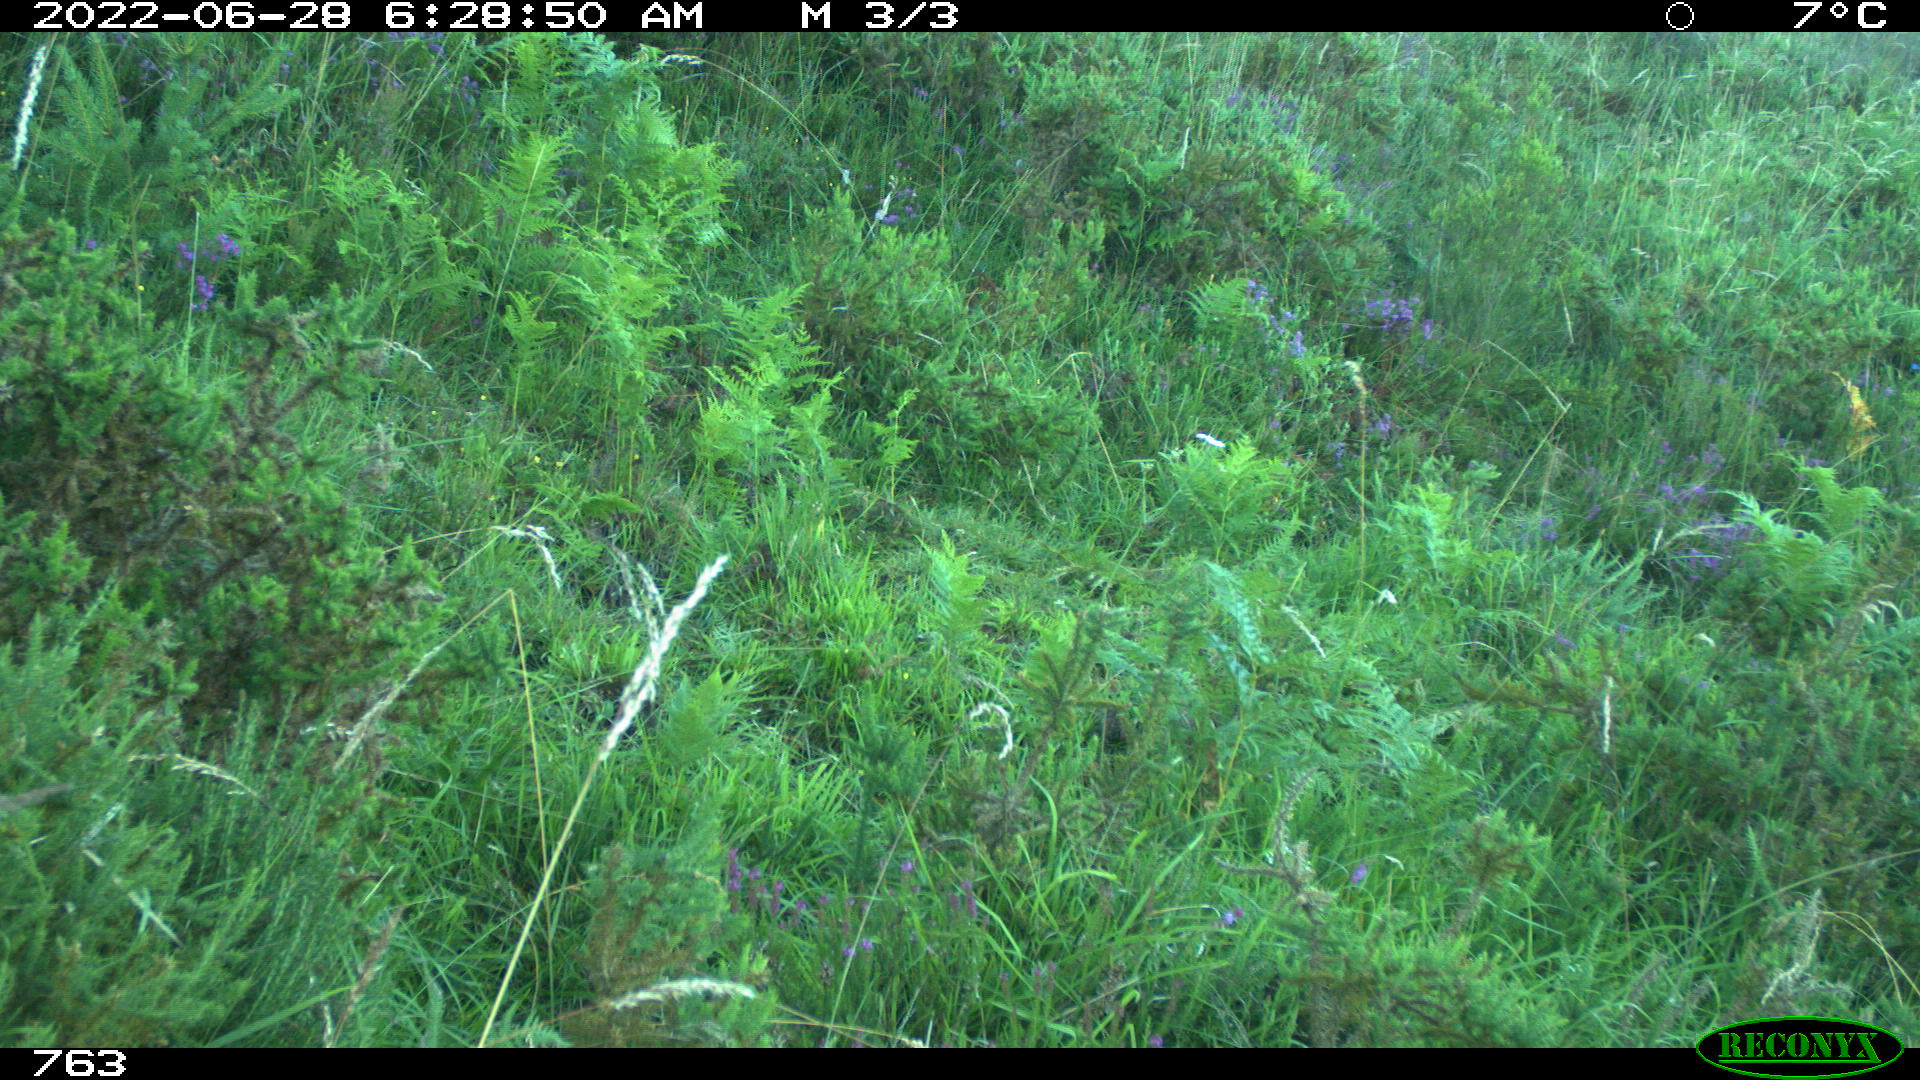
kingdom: Animalia
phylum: Chordata
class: Mammalia
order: Carnivora
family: Canidae
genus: Vulpes
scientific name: Vulpes vulpes
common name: Red fox
